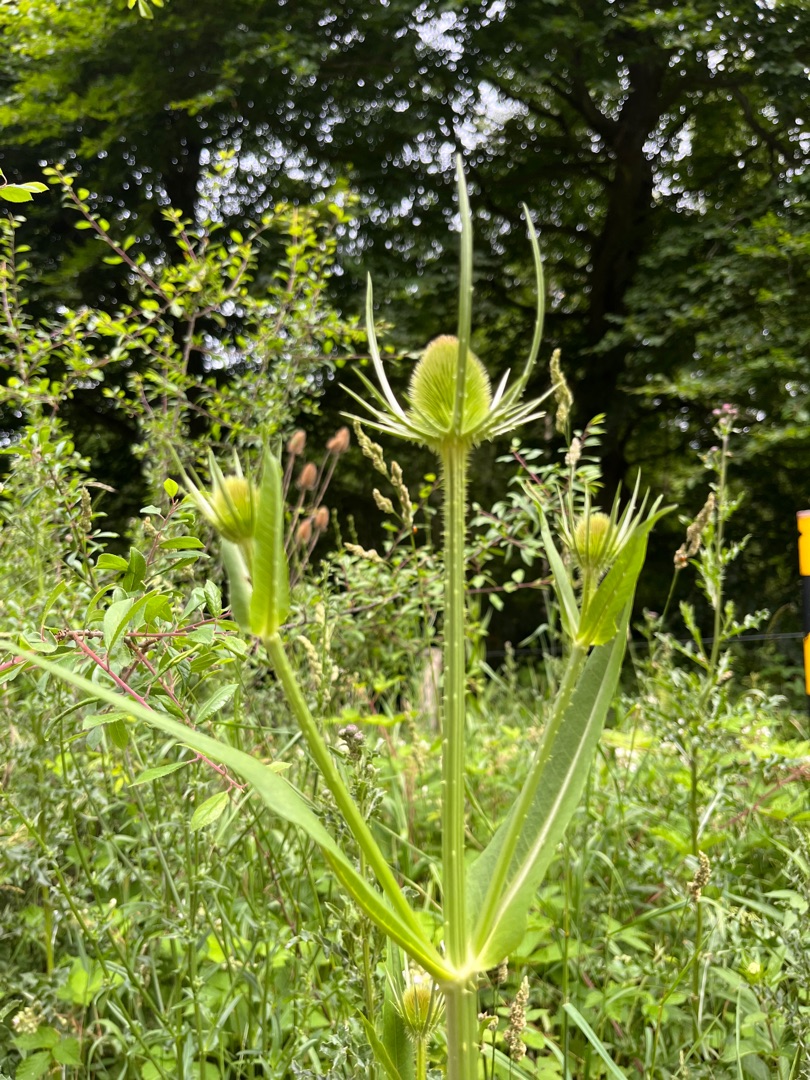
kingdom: Plantae
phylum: Tracheophyta
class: Magnoliopsida
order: Dipsacales
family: Caprifoliaceae
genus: Dipsacus
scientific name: Dipsacus fullonum
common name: Gærde-kartebolle
